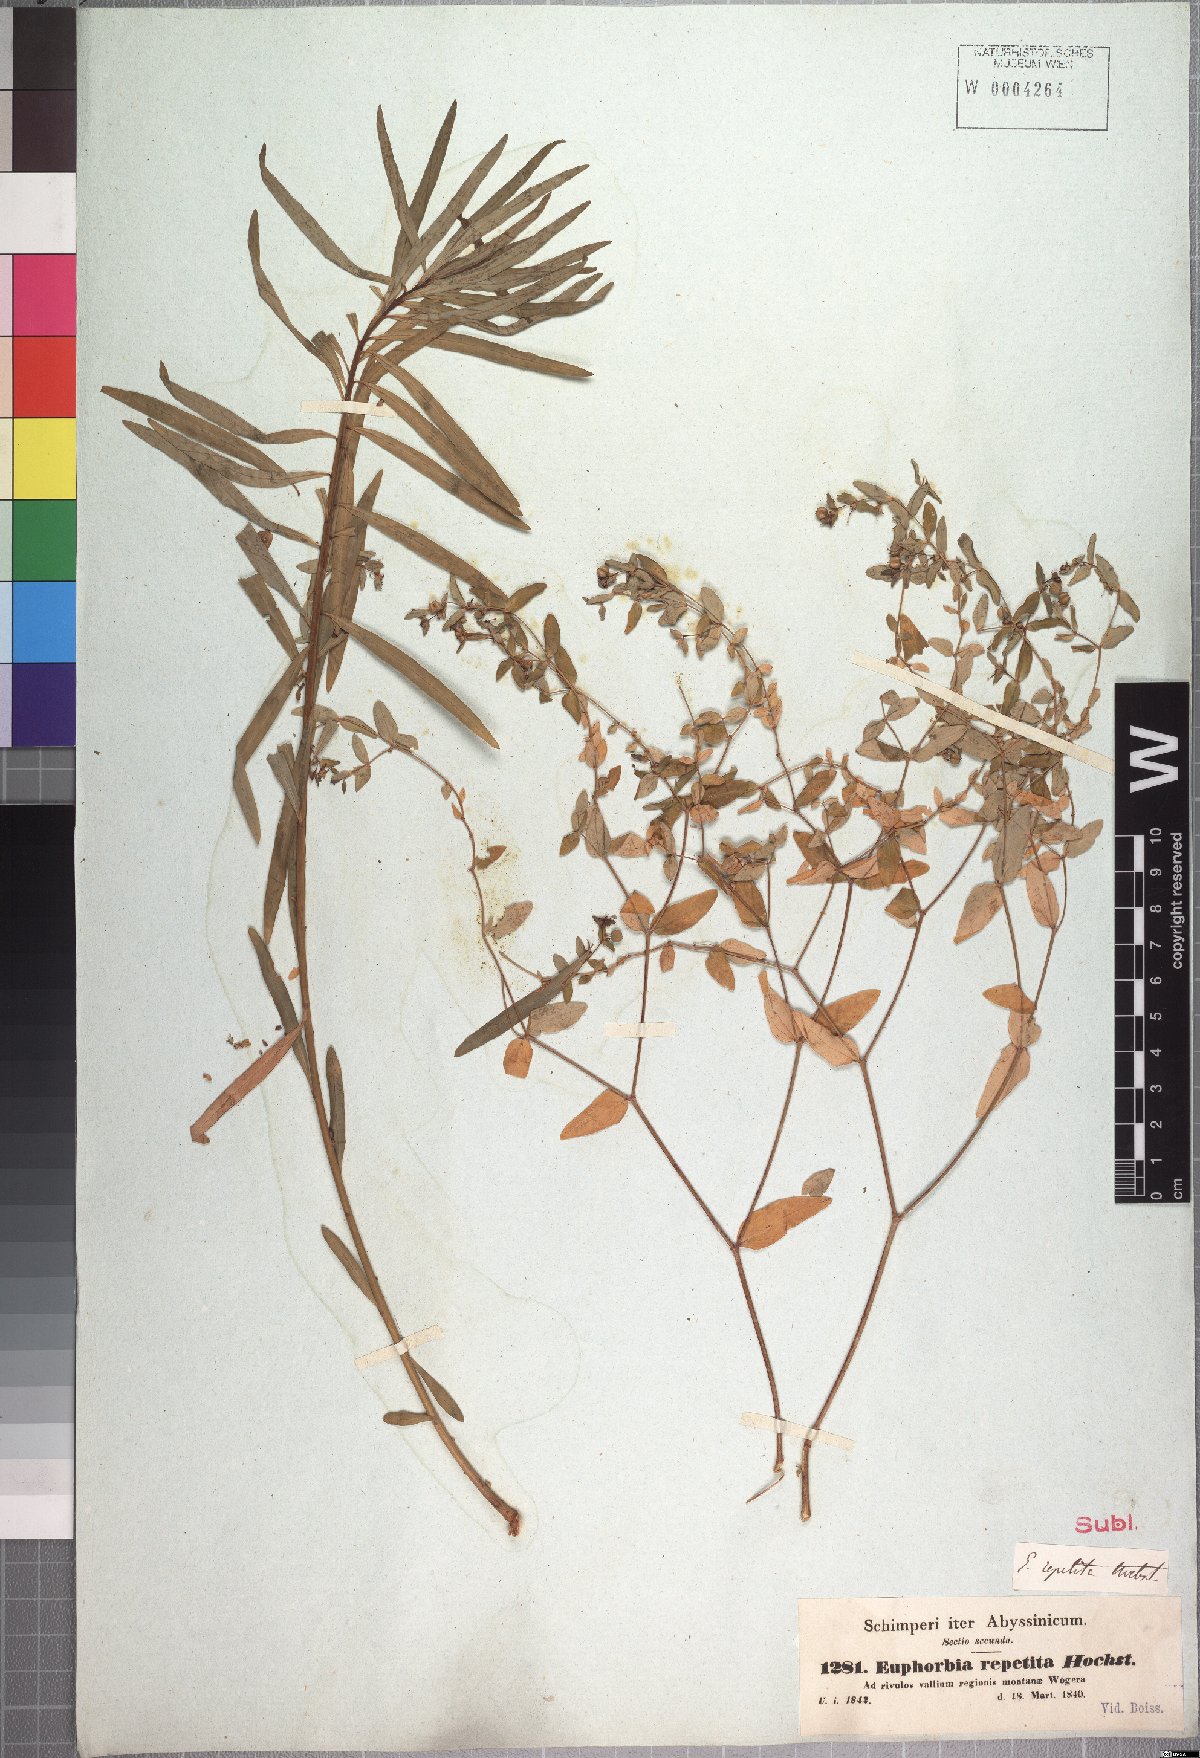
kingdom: Plantae
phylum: Tracheophyta
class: Magnoliopsida
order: Malpighiales
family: Euphorbiaceae
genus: Euphorbia
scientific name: Euphorbia repetita
